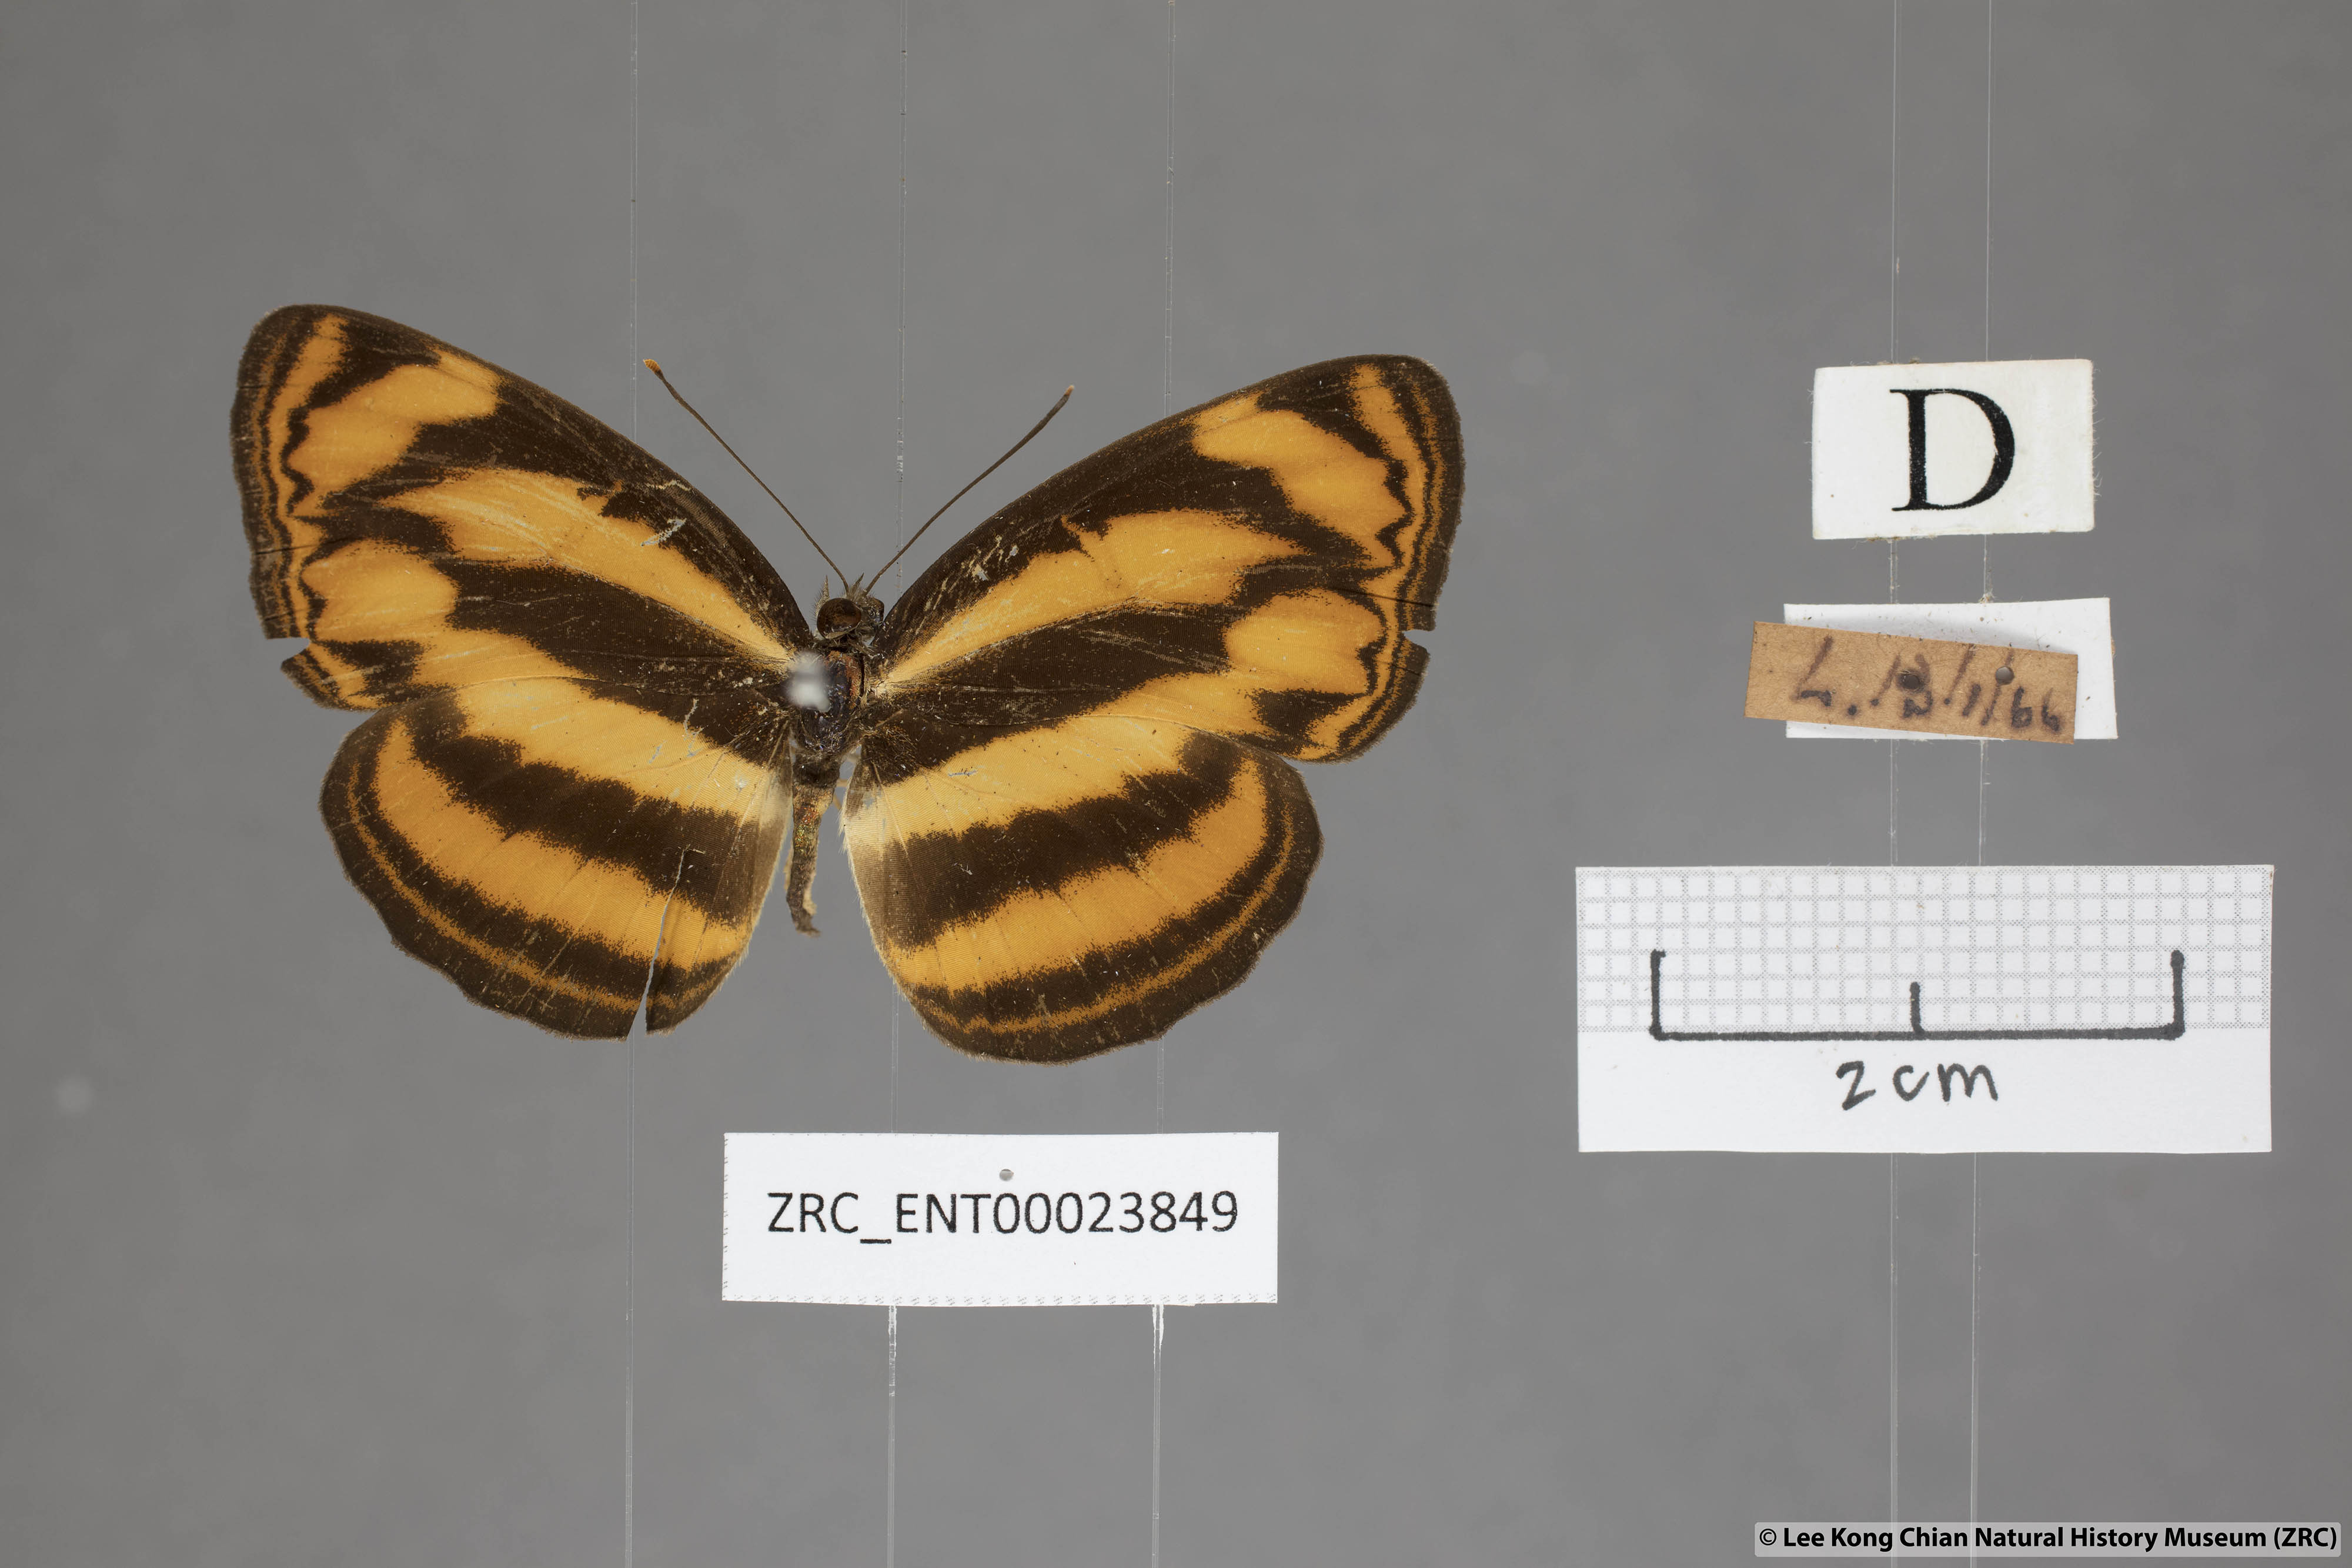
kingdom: Animalia
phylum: Arthropoda
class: Insecta
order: Lepidoptera
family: Nymphalidae
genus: Lasippa
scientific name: Lasippa tiga
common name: Malayan lascar
